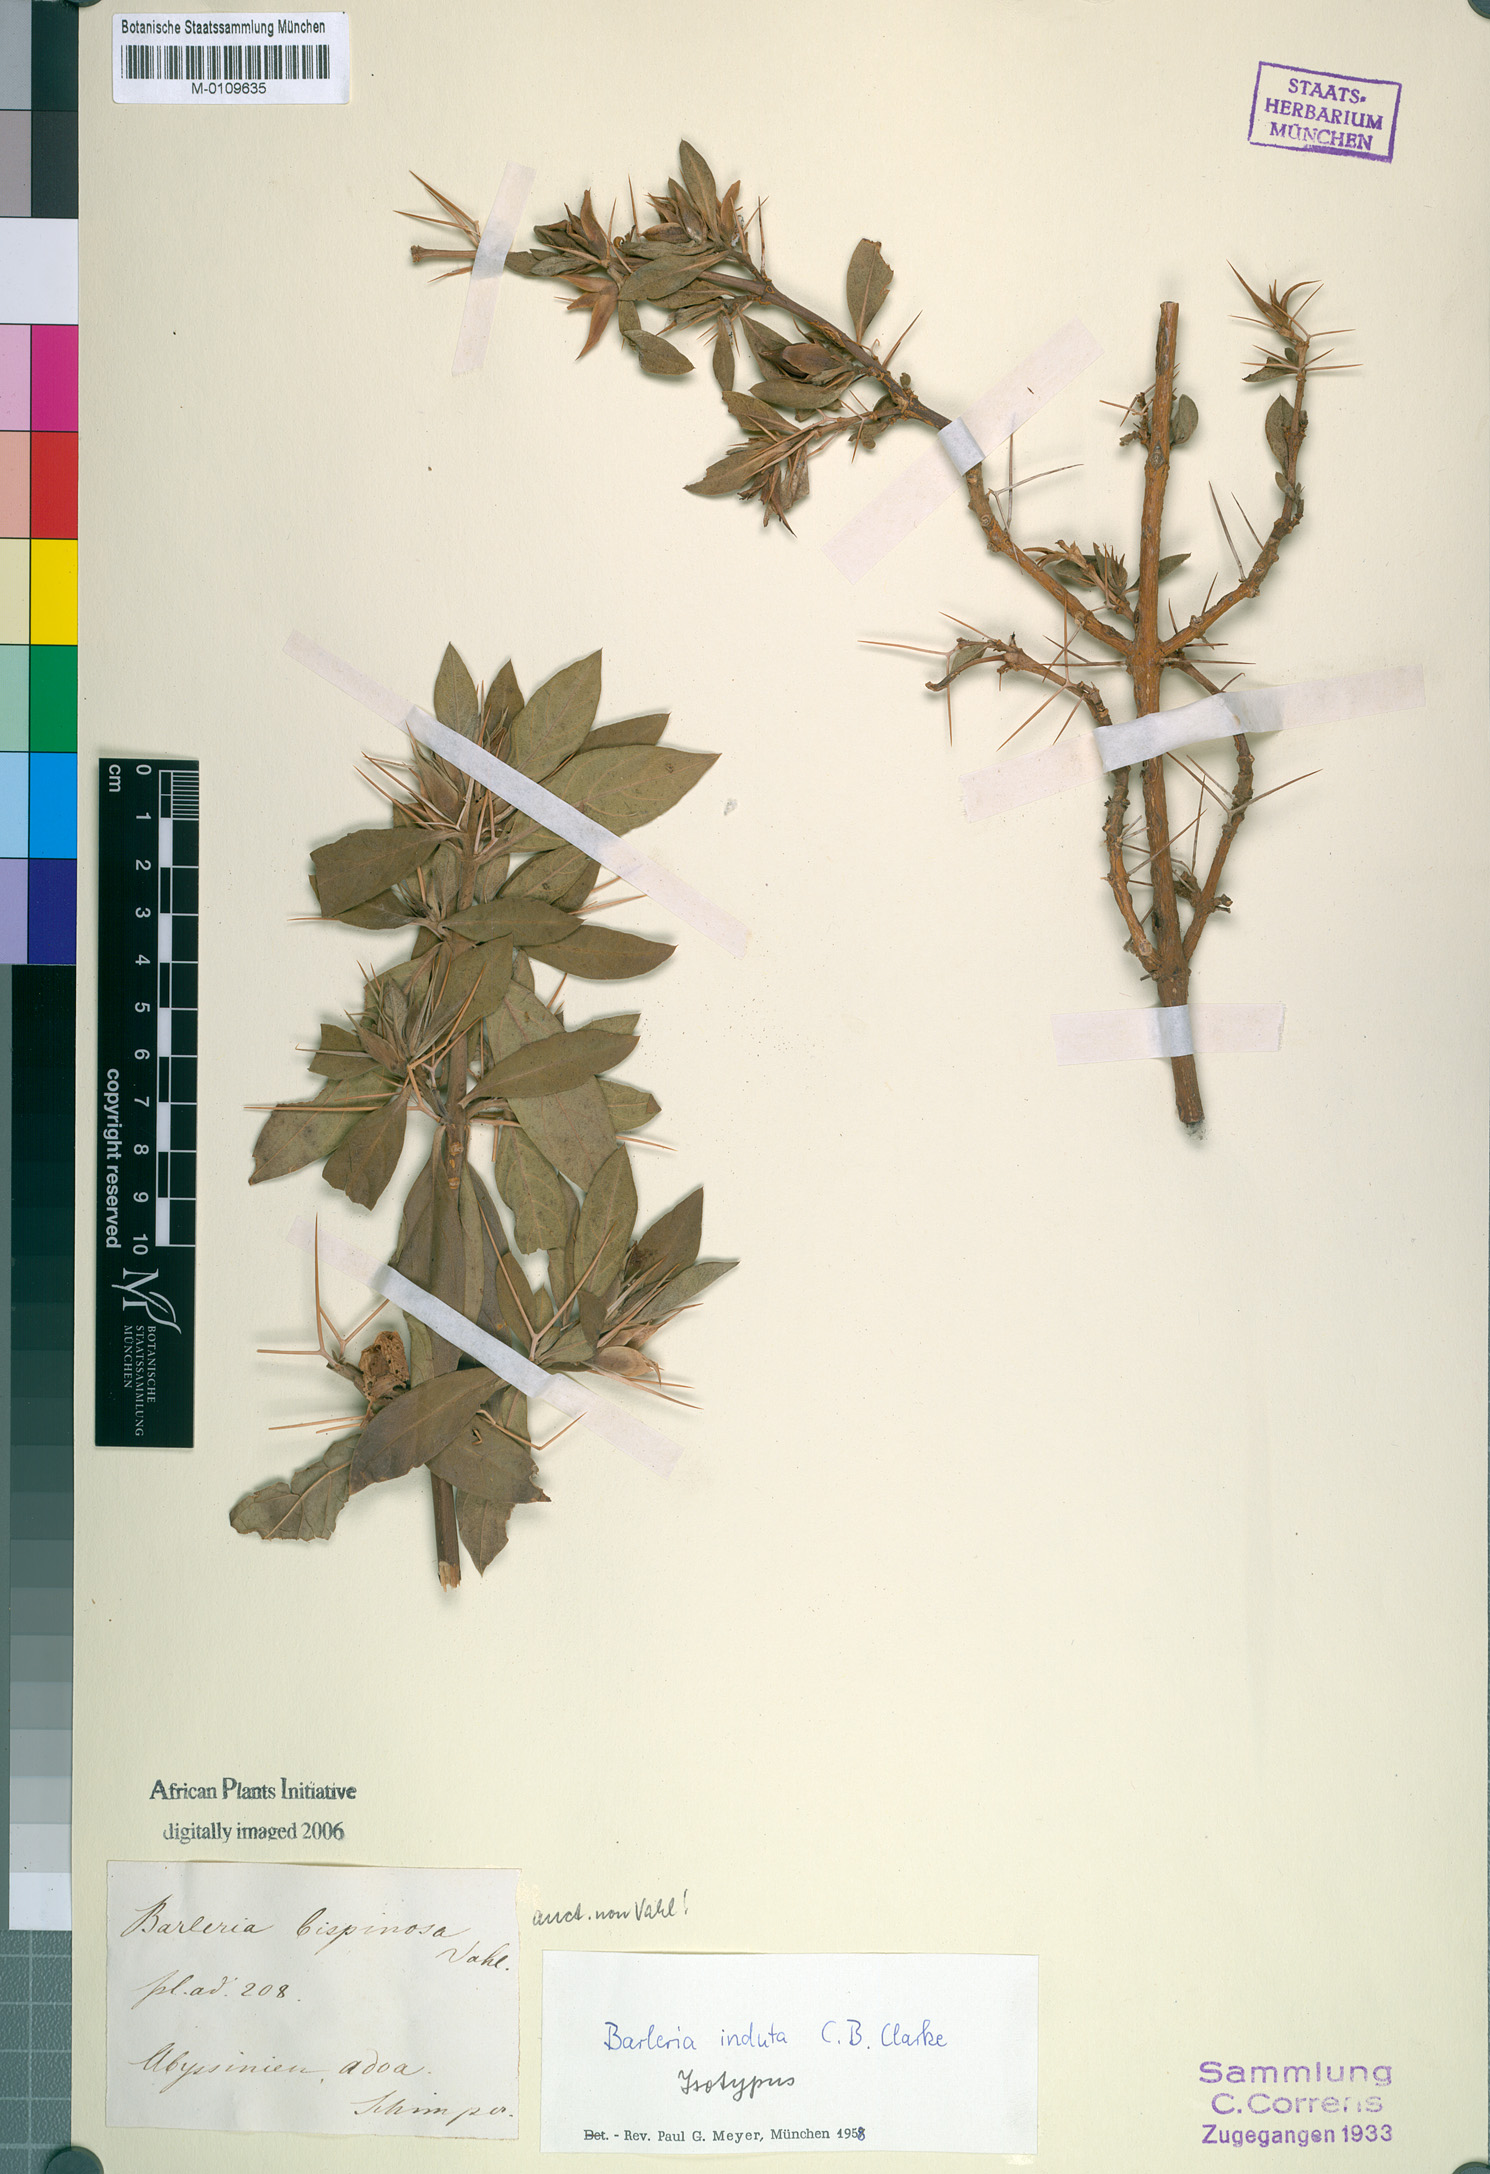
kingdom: Plantae
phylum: Tracheophyta
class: Magnoliopsida
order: Lamiales
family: Acanthaceae
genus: Barleria
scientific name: Barleria prionitis
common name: Barleria
